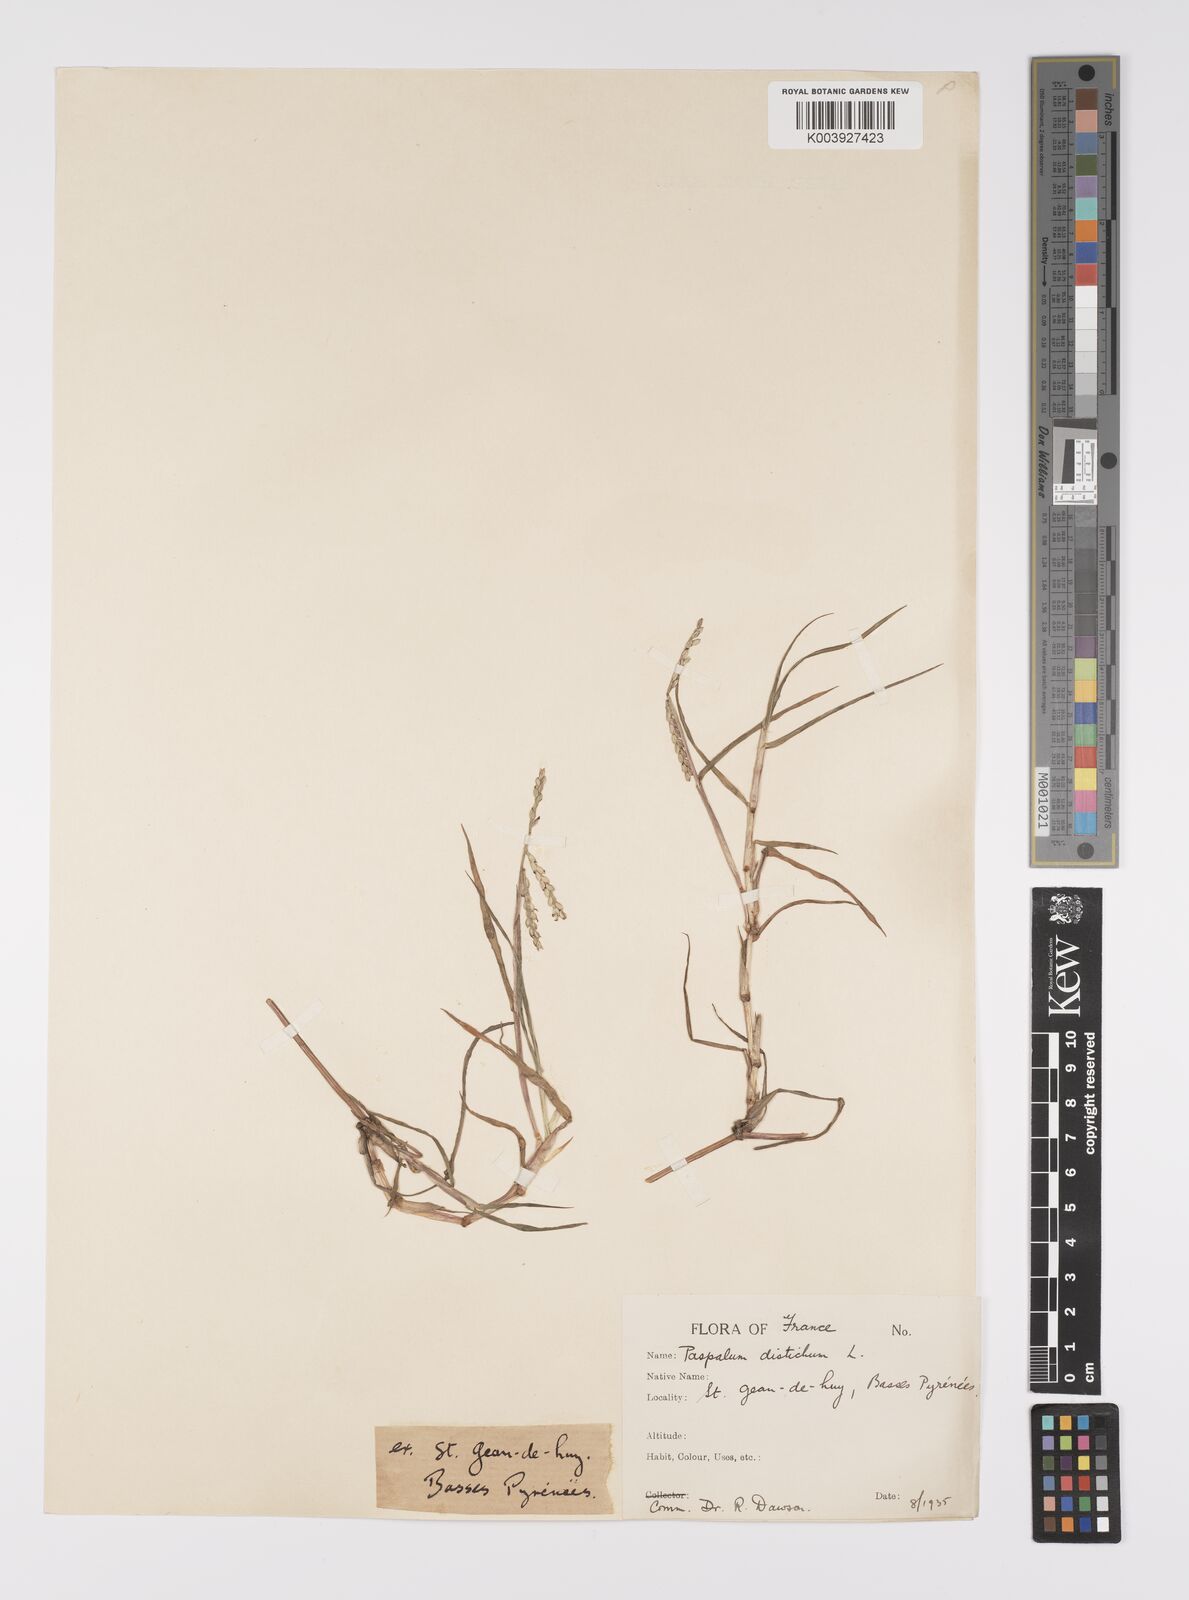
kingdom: Plantae
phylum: Tracheophyta
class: Liliopsida
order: Poales
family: Poaceae
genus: Paspalum
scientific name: Paspalum distichum
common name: Knotgrass
